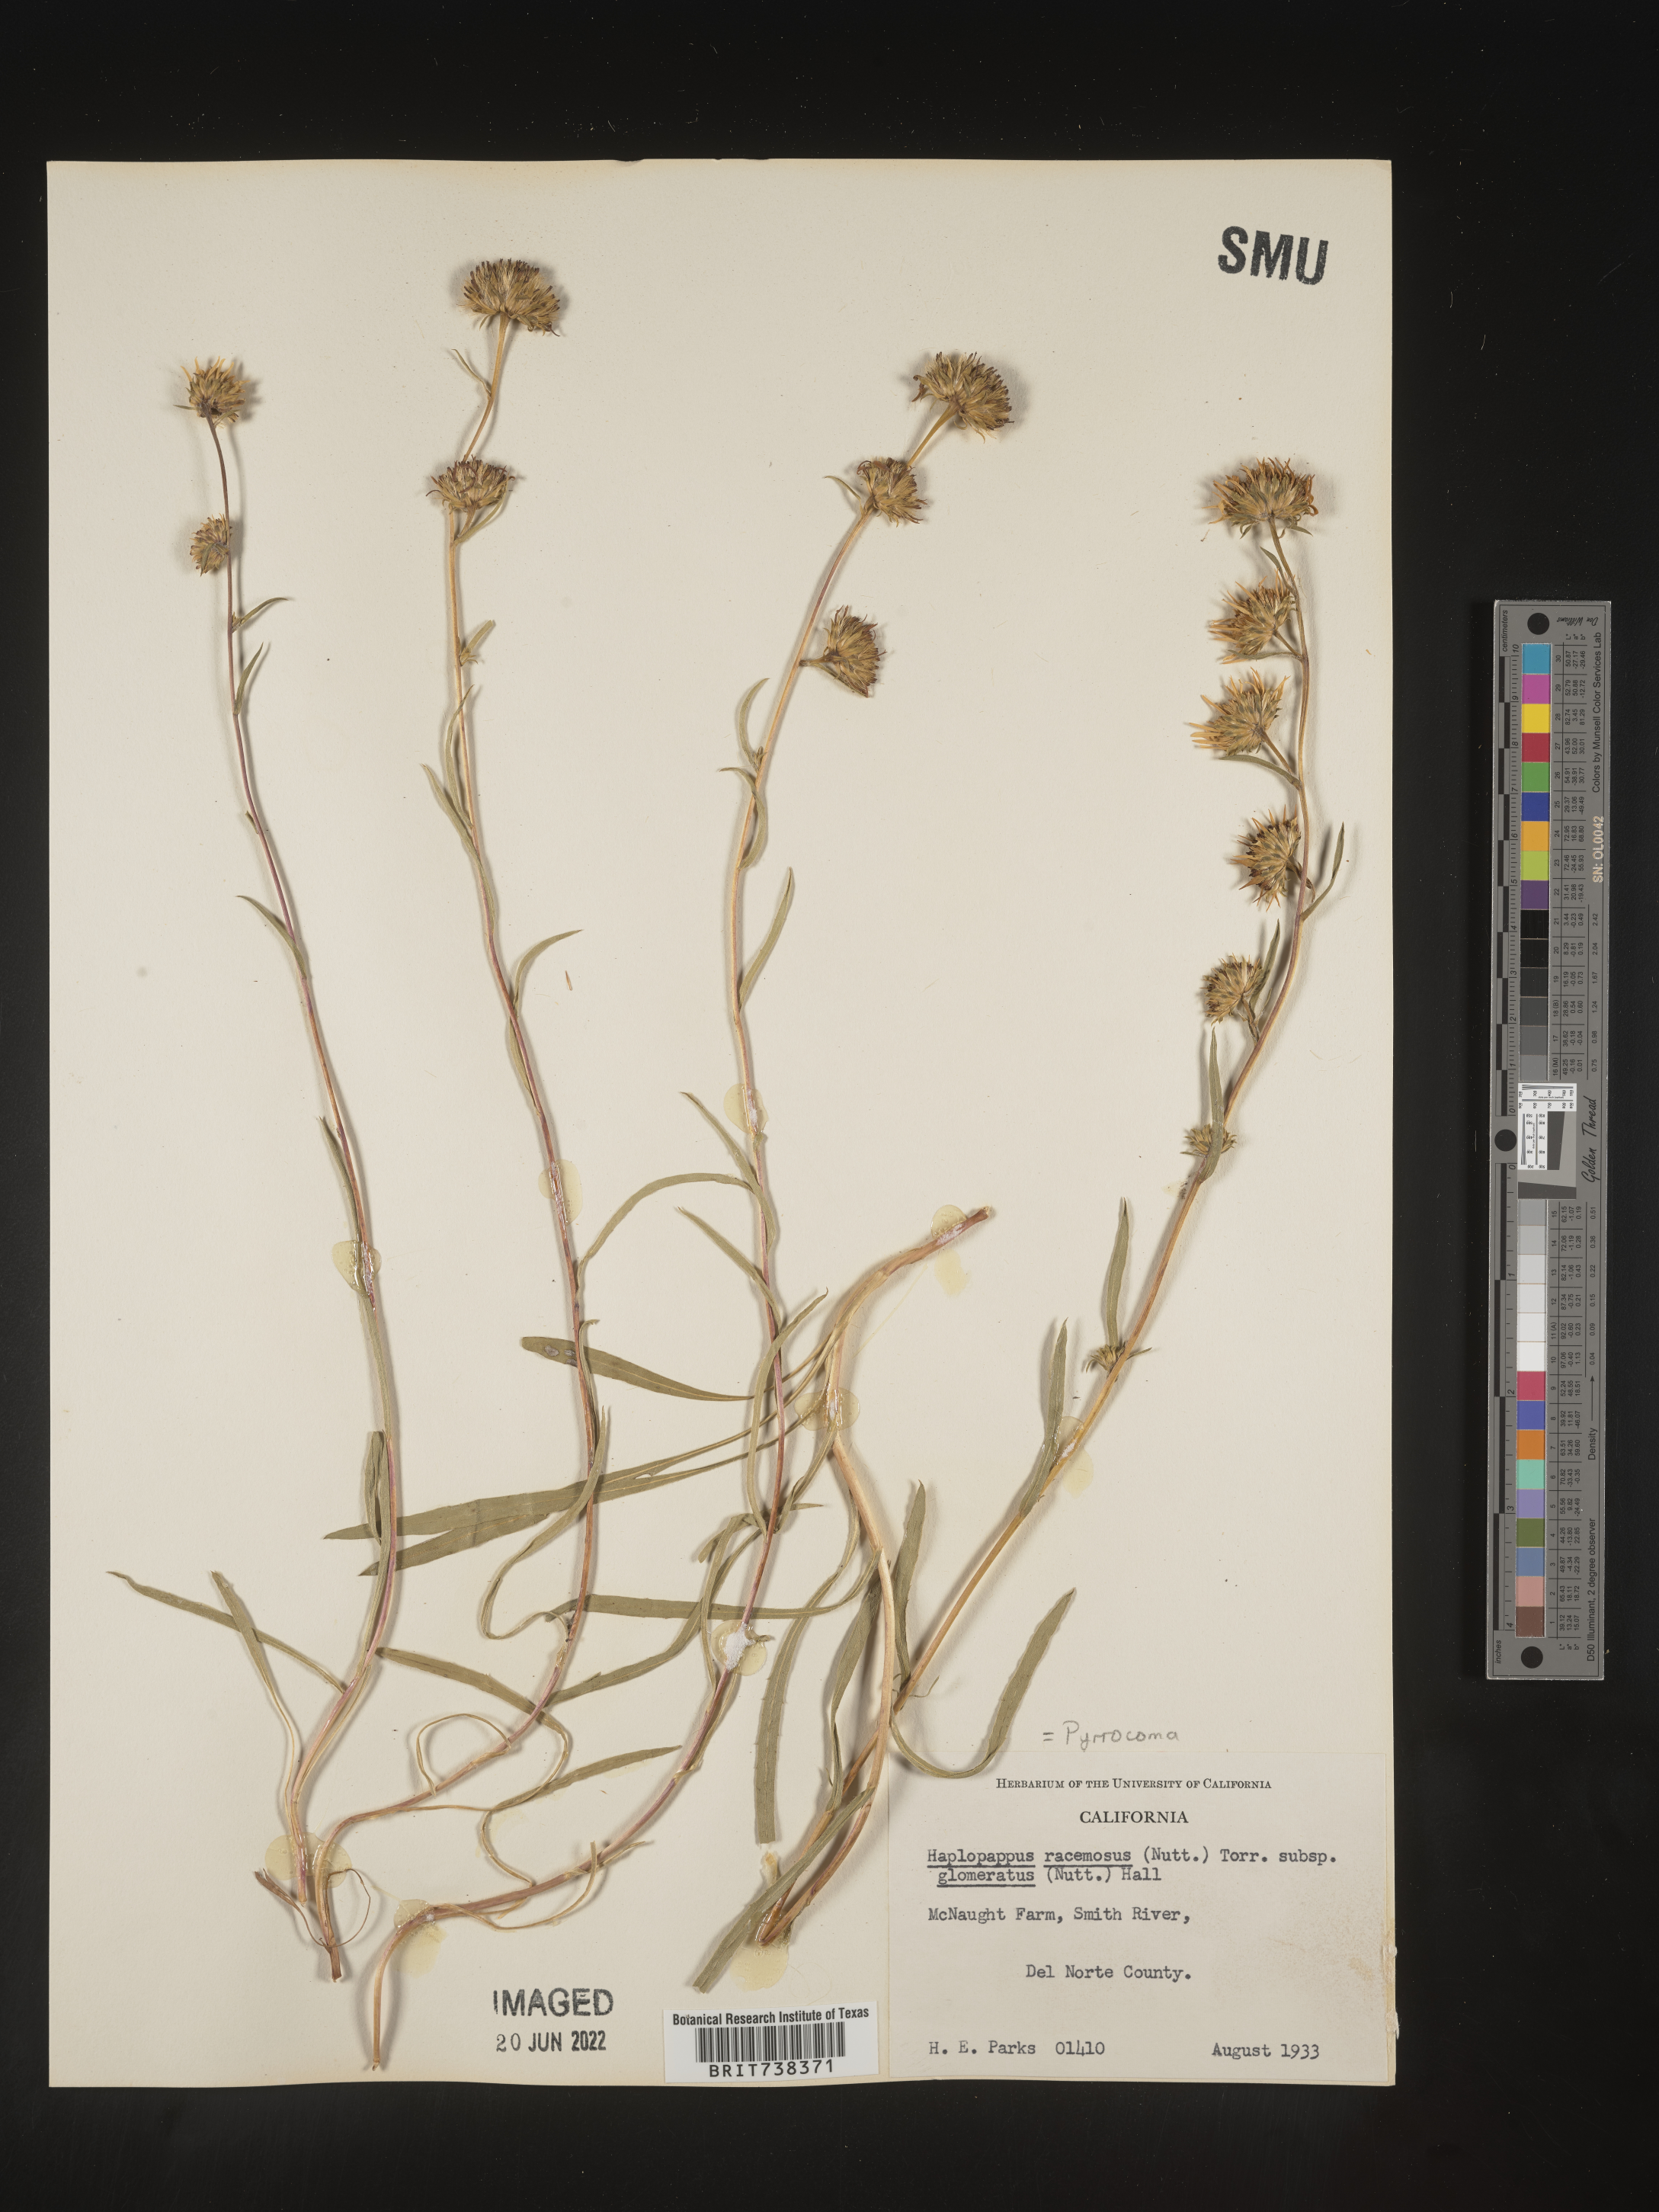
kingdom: Plantae
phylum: Tracheophyta
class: Magnoliopsida
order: Asterales
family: Asteraceae
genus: Pyrrocoma
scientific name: Pyrrocoma racemosa
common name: Clustered goldenweed
